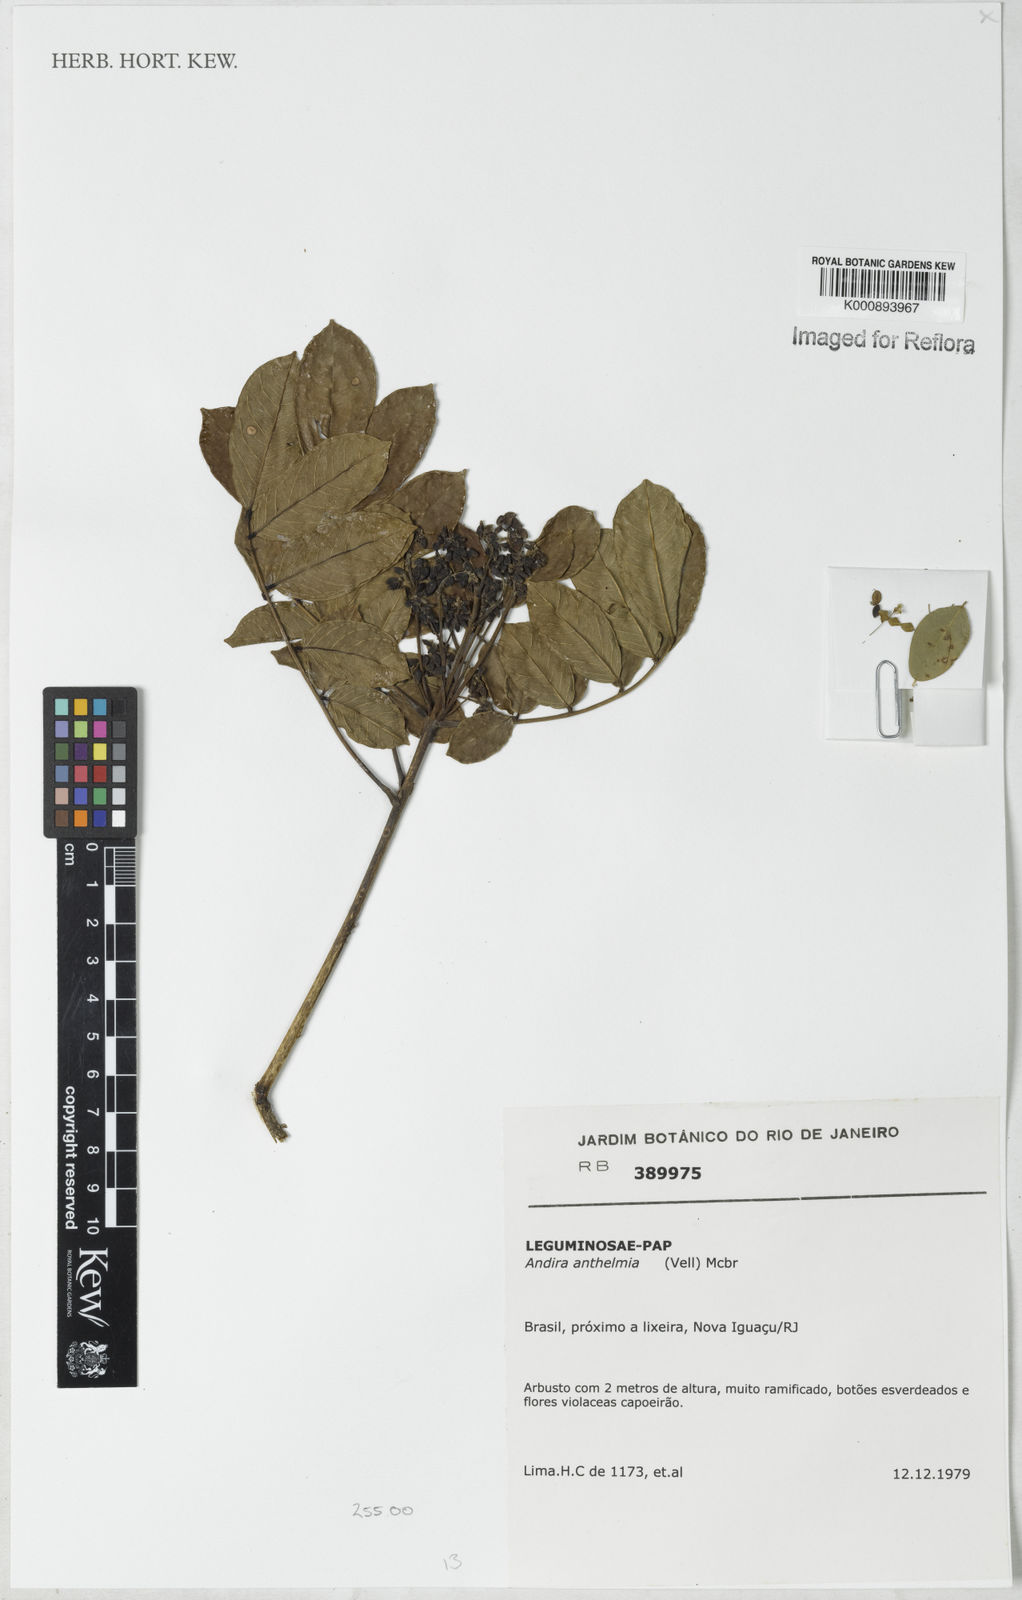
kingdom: Plantae
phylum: Tracheophyta
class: Magnoliopsida
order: Fabales
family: Fabaceae
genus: Andira
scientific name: Andira anthelmia
